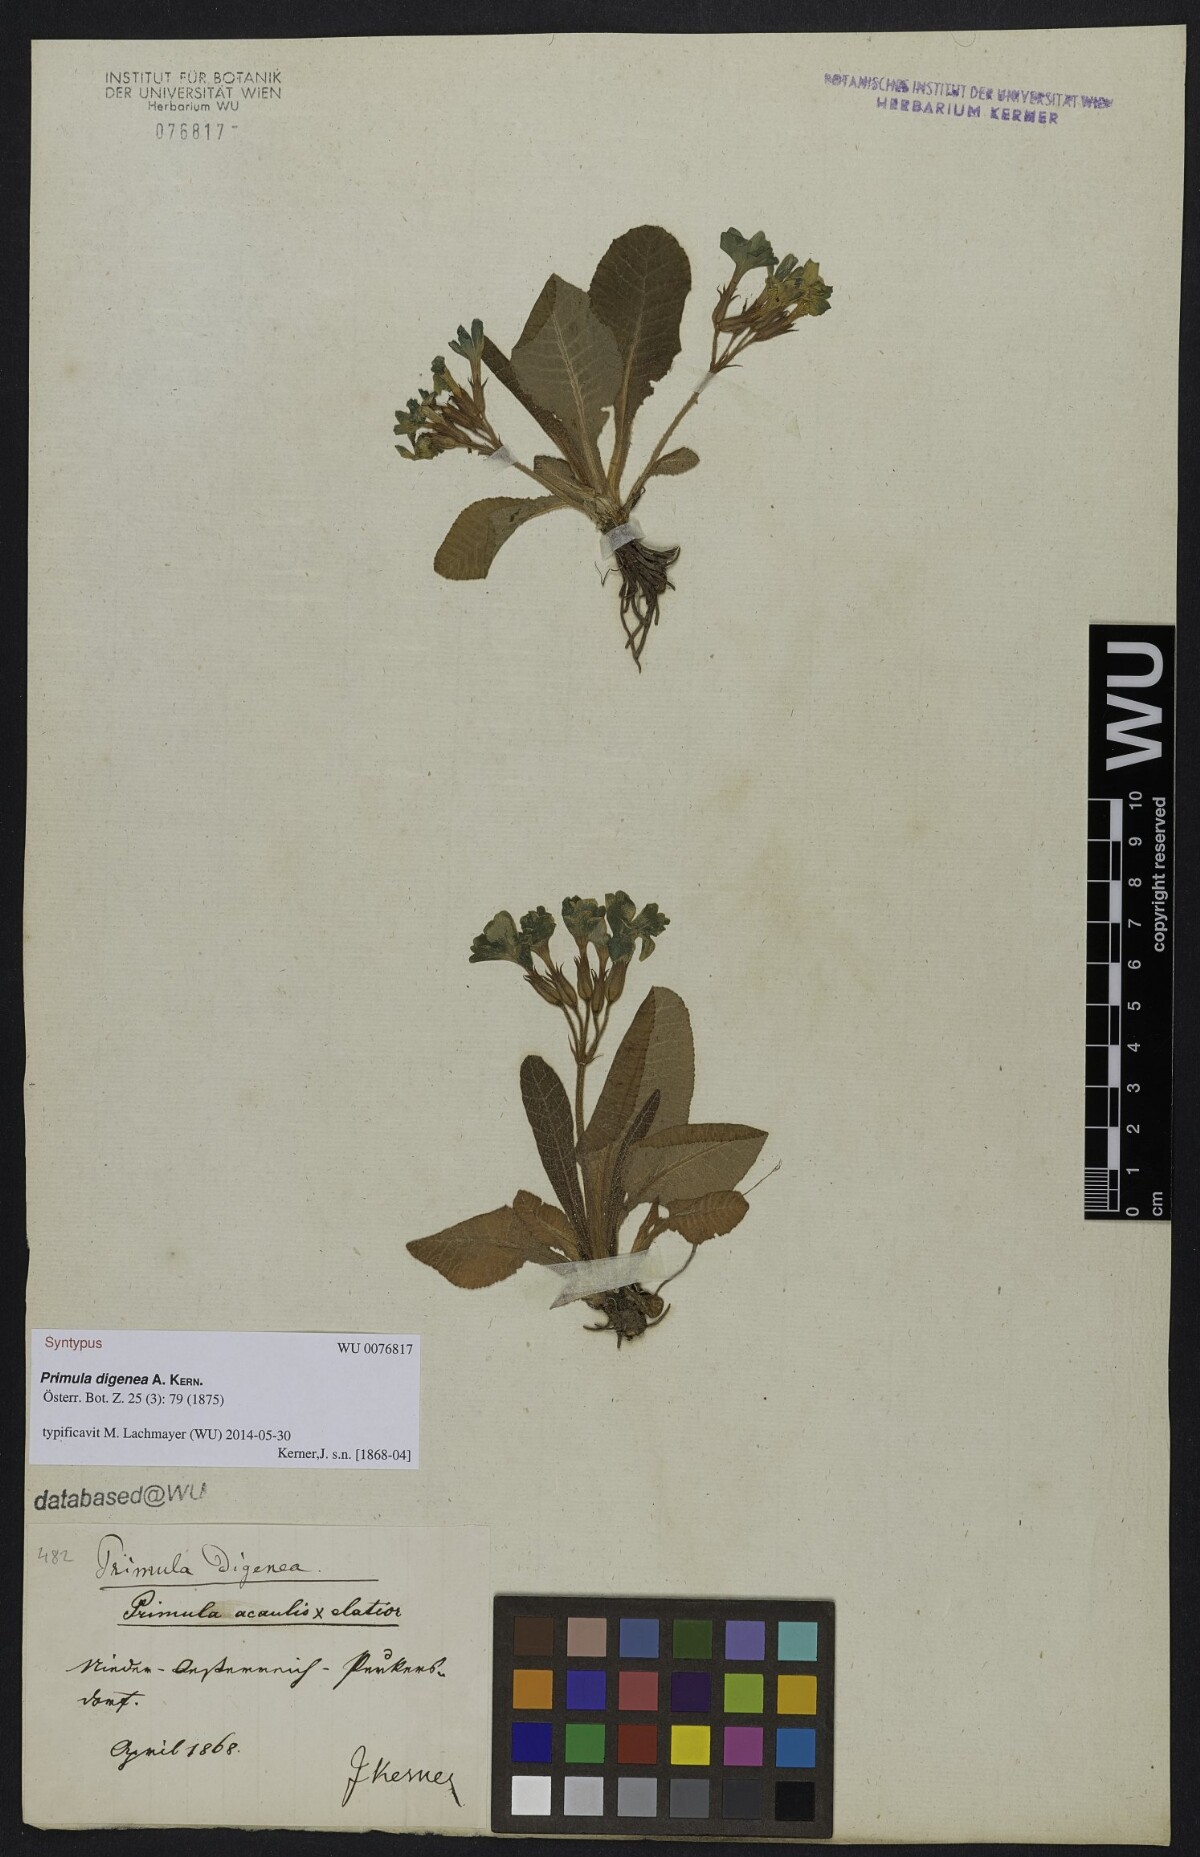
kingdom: Plantae
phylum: Tracheophyta
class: Magnoliopsida
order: Ericales
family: Primulaceae
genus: Primula
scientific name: Primula digenea
